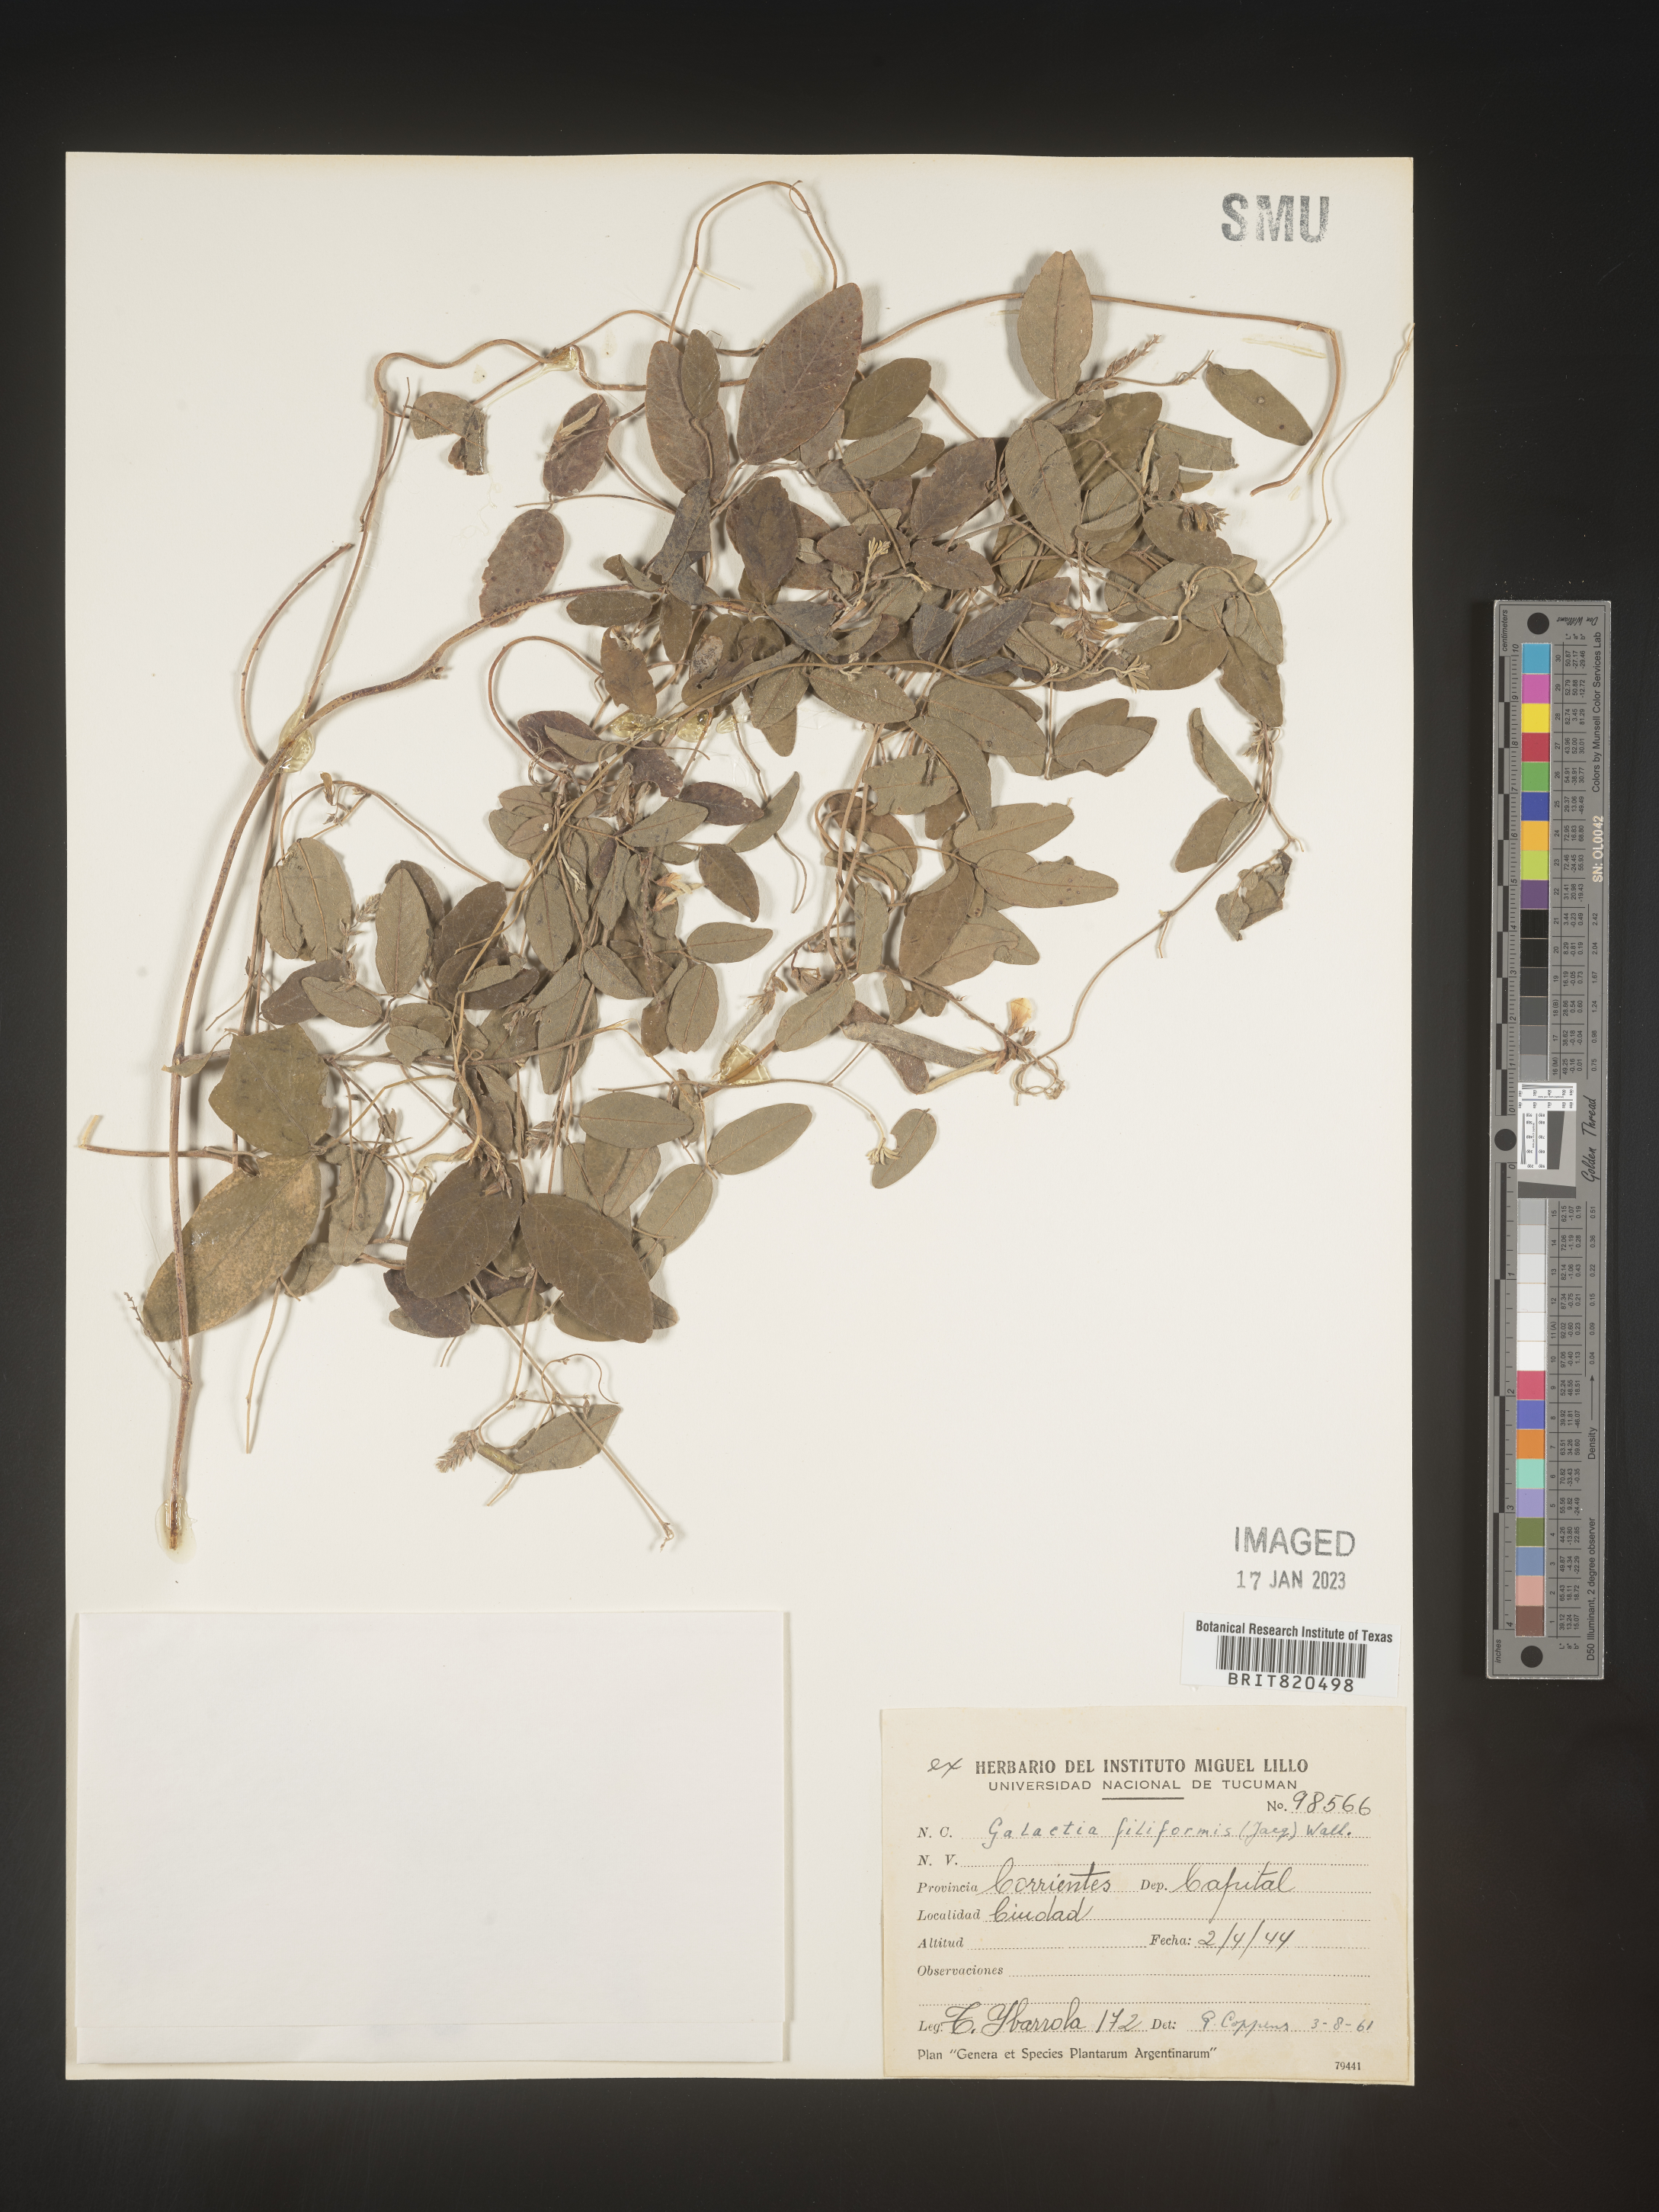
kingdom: Plantae
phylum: Tracheophyta
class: Magnoliopsida
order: Fabales
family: Fabaceae
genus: Galactia
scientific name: Galactia
